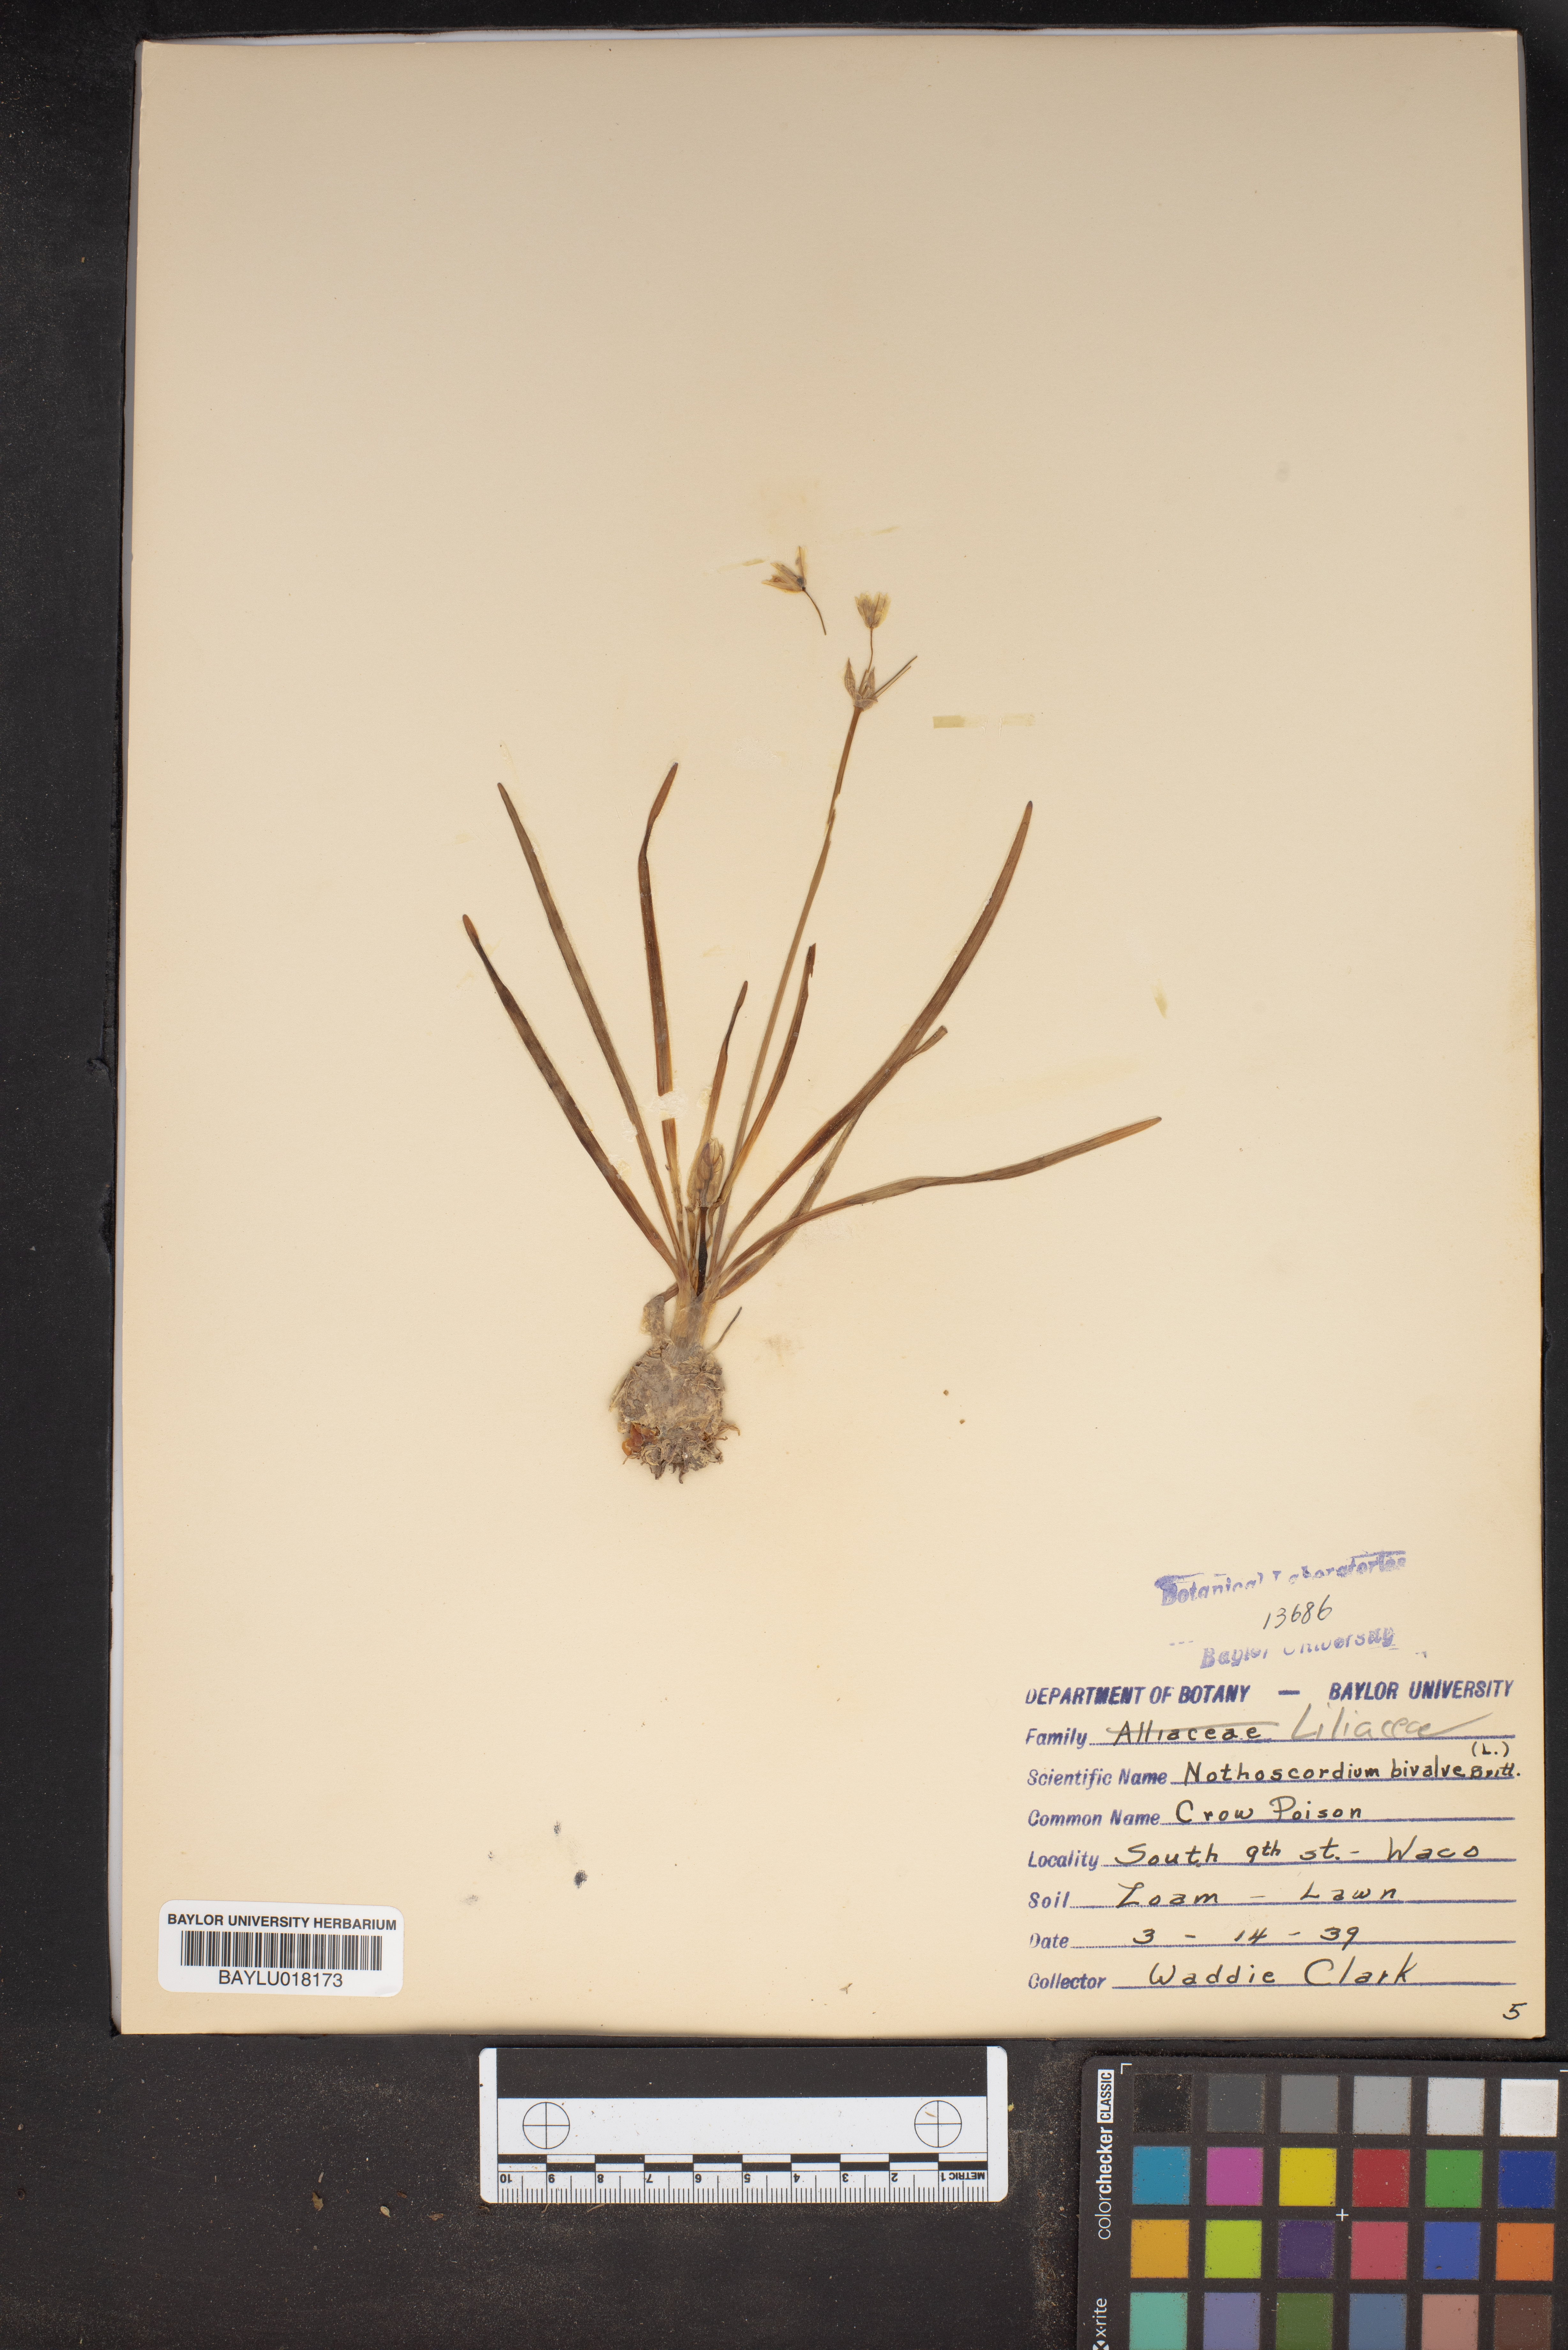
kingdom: Plantae
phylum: Tracheophyta
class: Liliopsida
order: Asparagales
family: Amaryllidaceae
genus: Nothoscordum
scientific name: Nothoscordum bivalve
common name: Crow-poison
